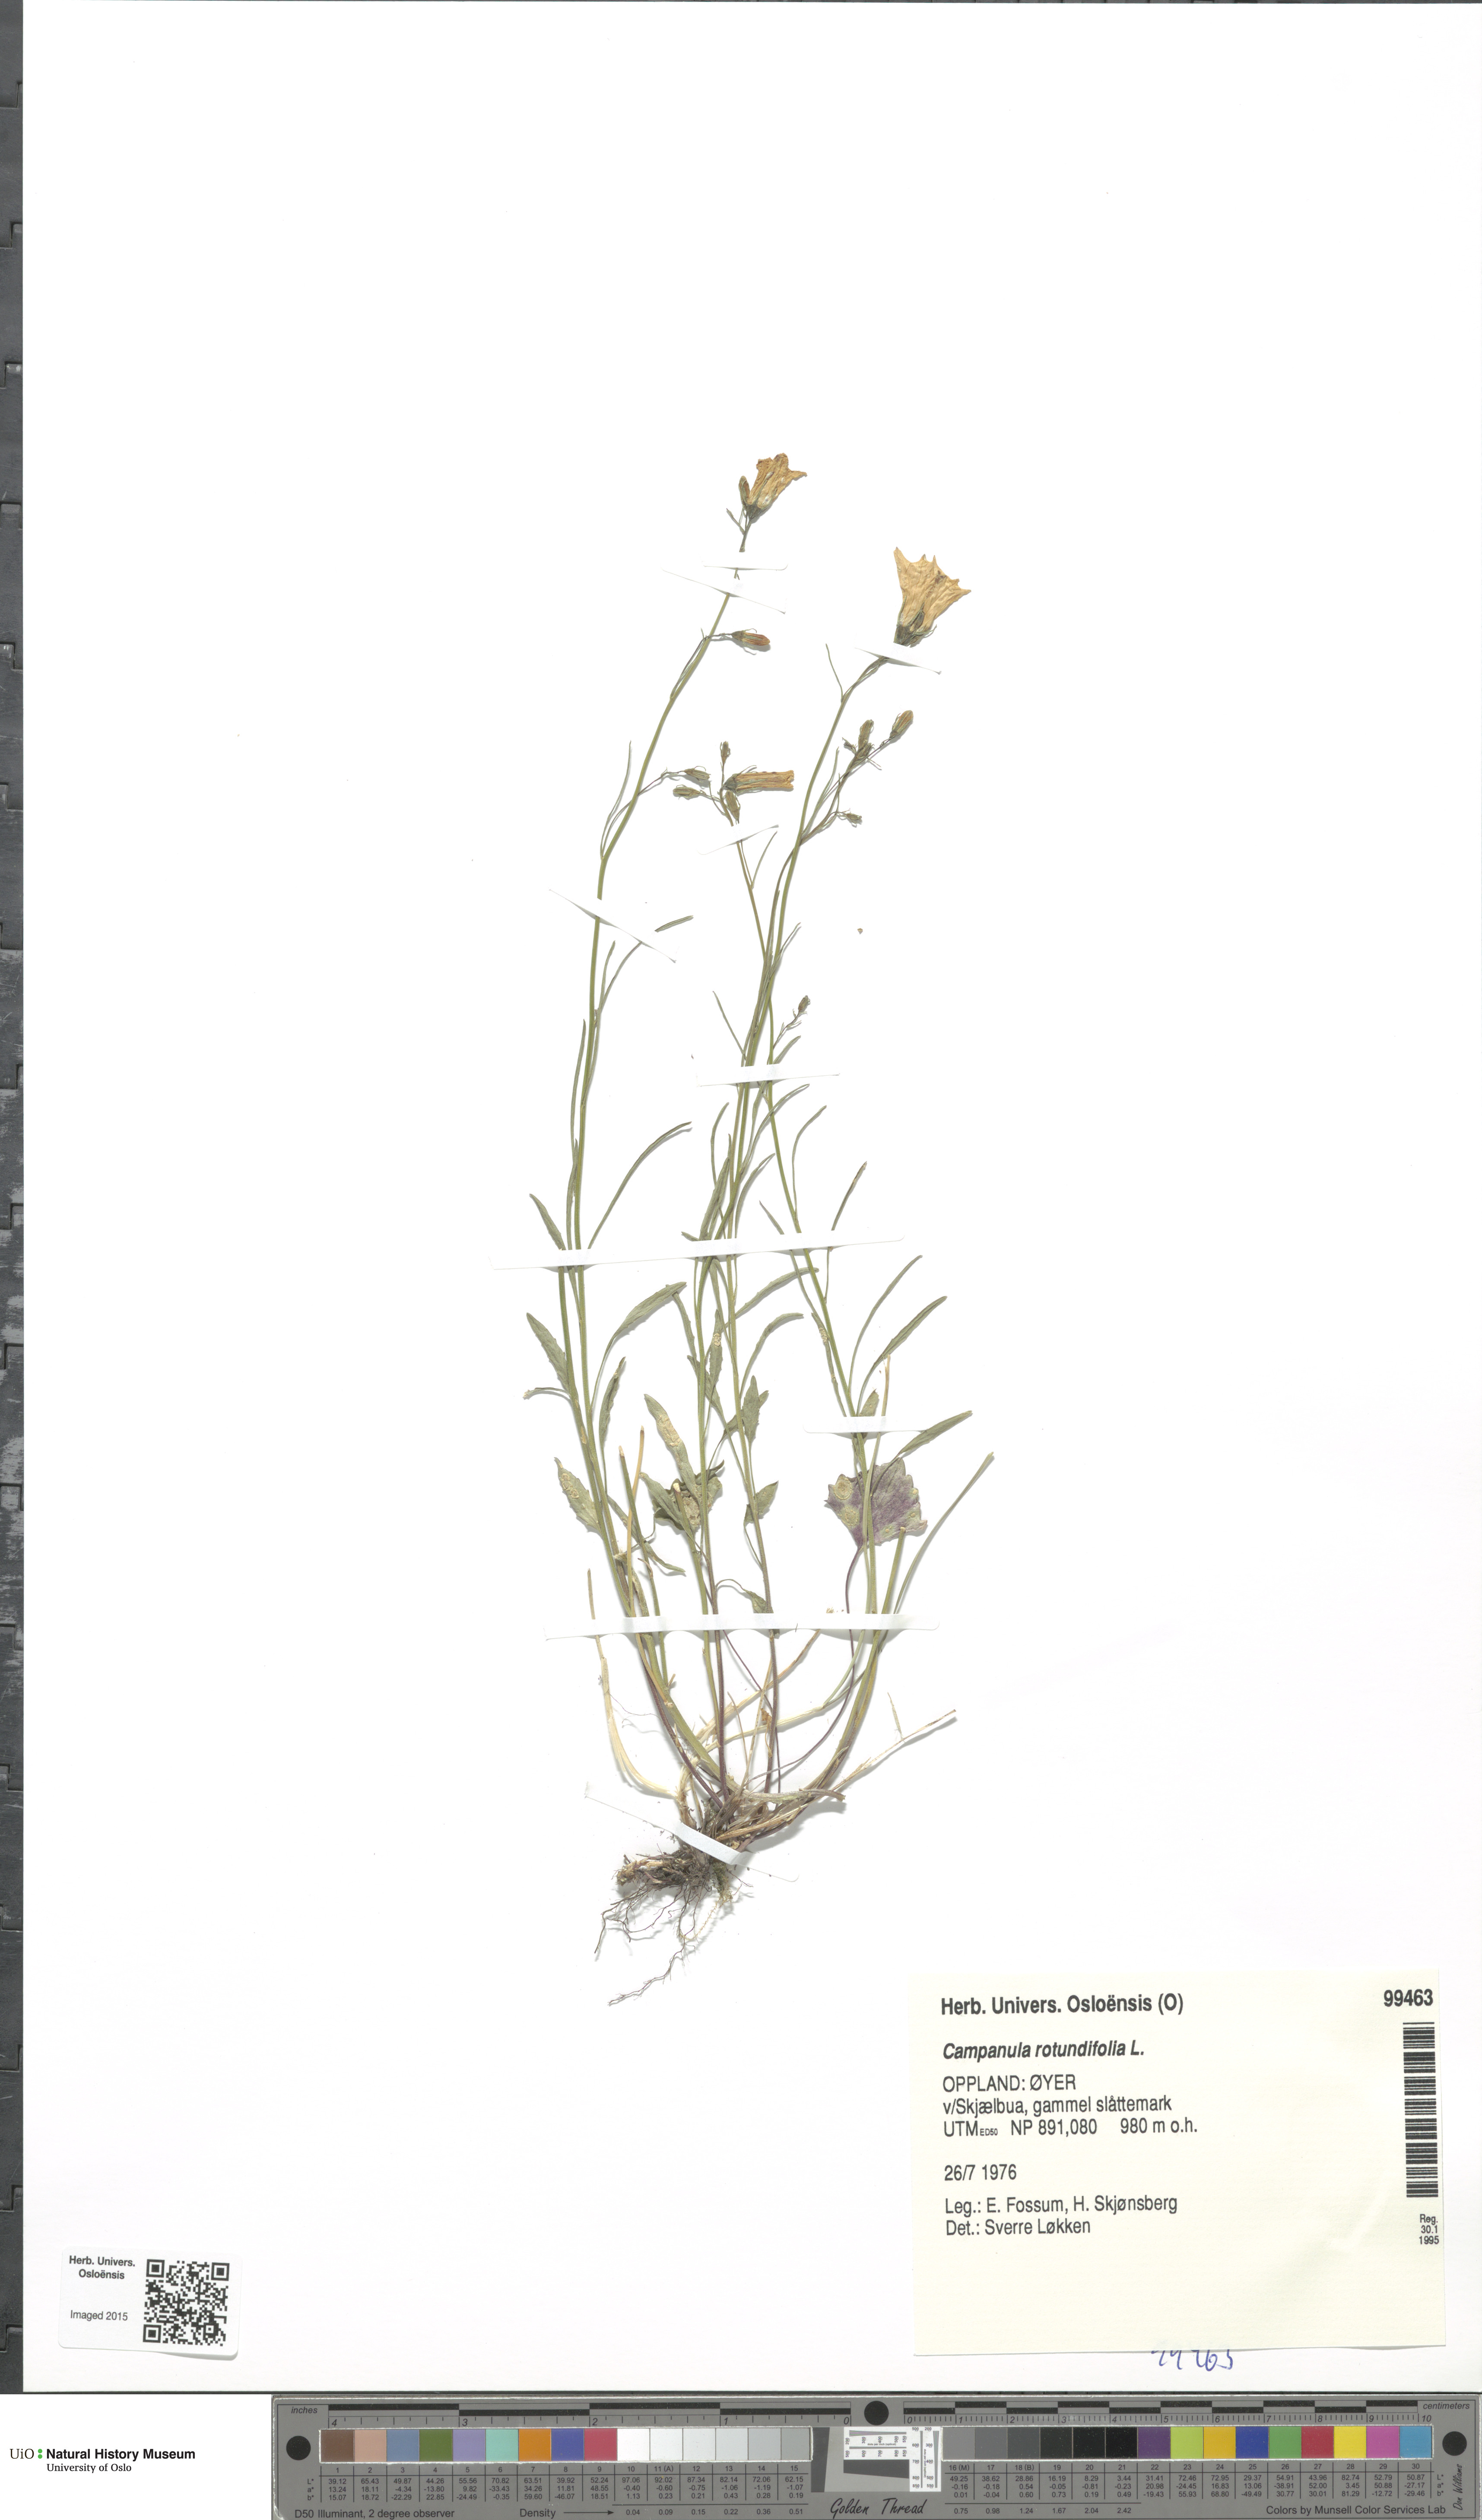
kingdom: Plantae
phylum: Tracheophyta
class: Magnoliopsida
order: Asterales
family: Campanulaceae
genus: Campanula
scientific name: Campanula rotundifolia
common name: Harebell
